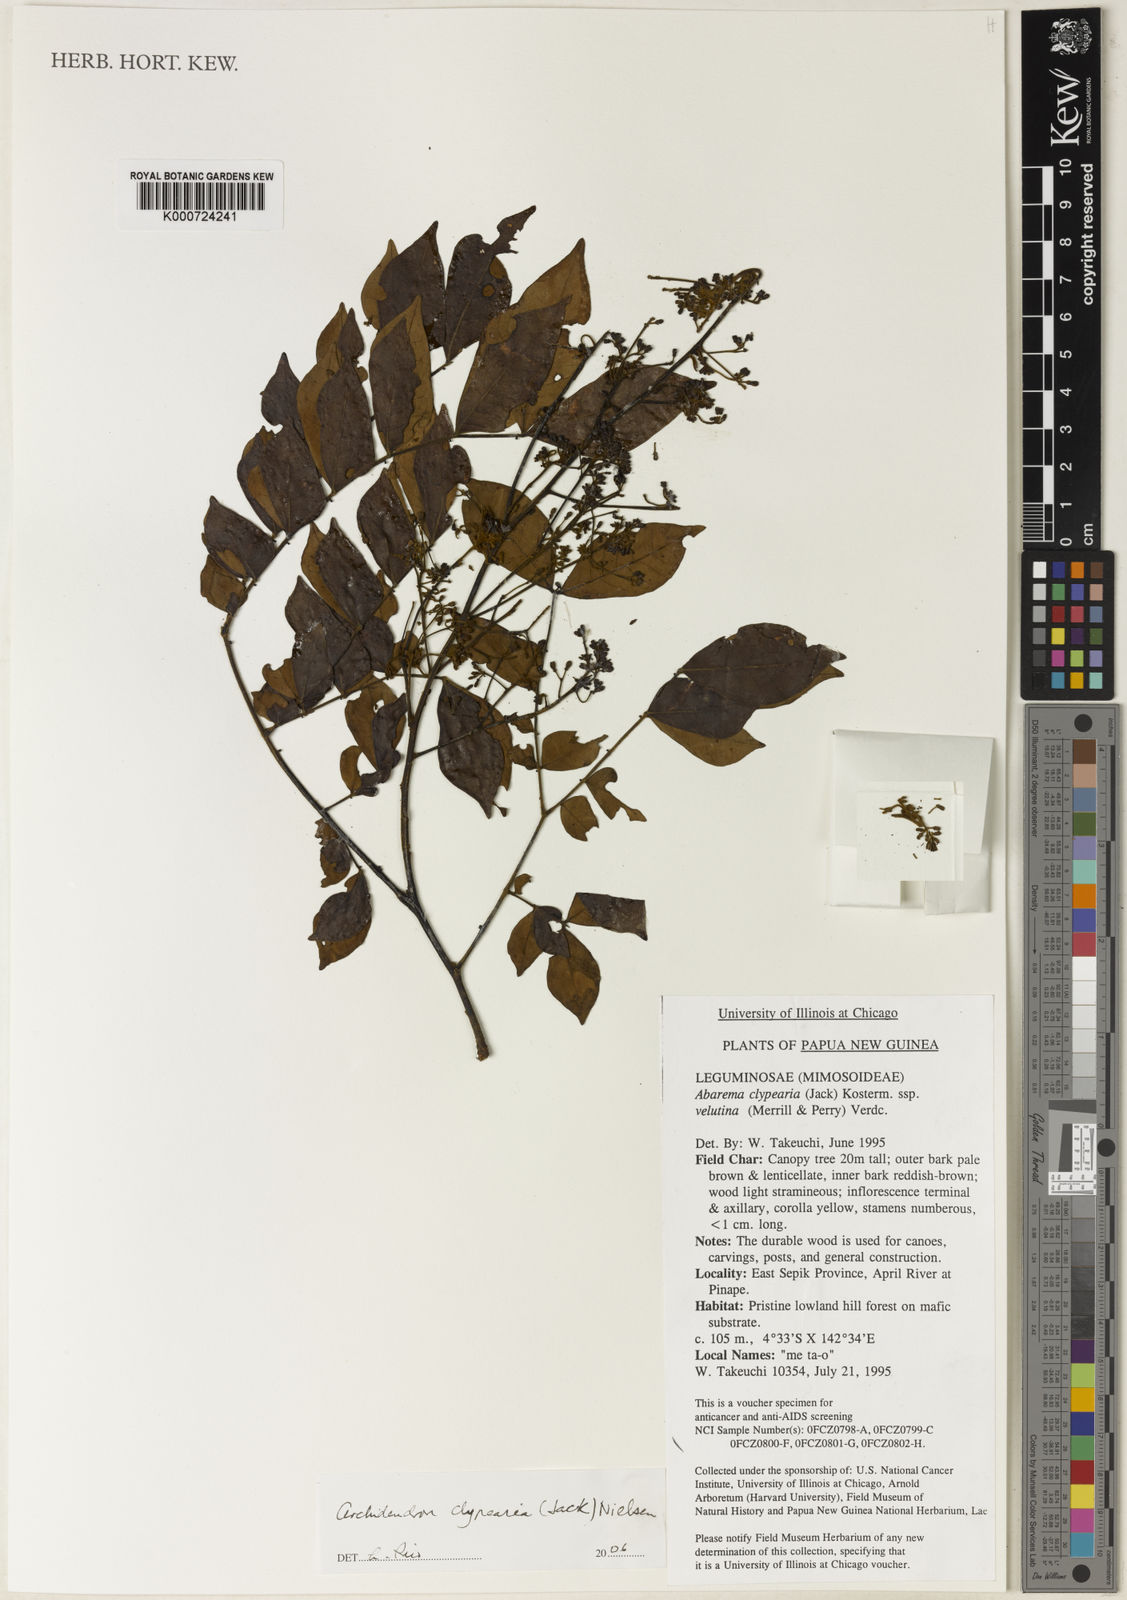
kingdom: Plantae
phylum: Tracheophyta
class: Magnoliopsida
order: Fabales
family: Fabaceae
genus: Archidendron
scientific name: Archidendron clypearia
